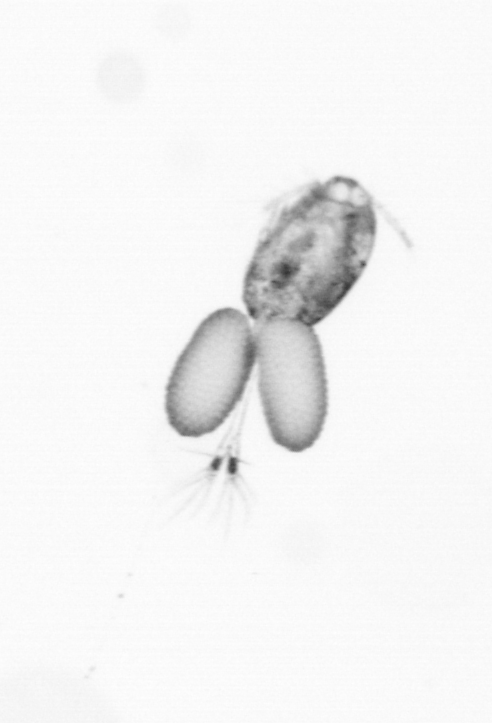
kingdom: Animalia
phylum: Arthropoda
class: Copepoda
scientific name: Copepoda
